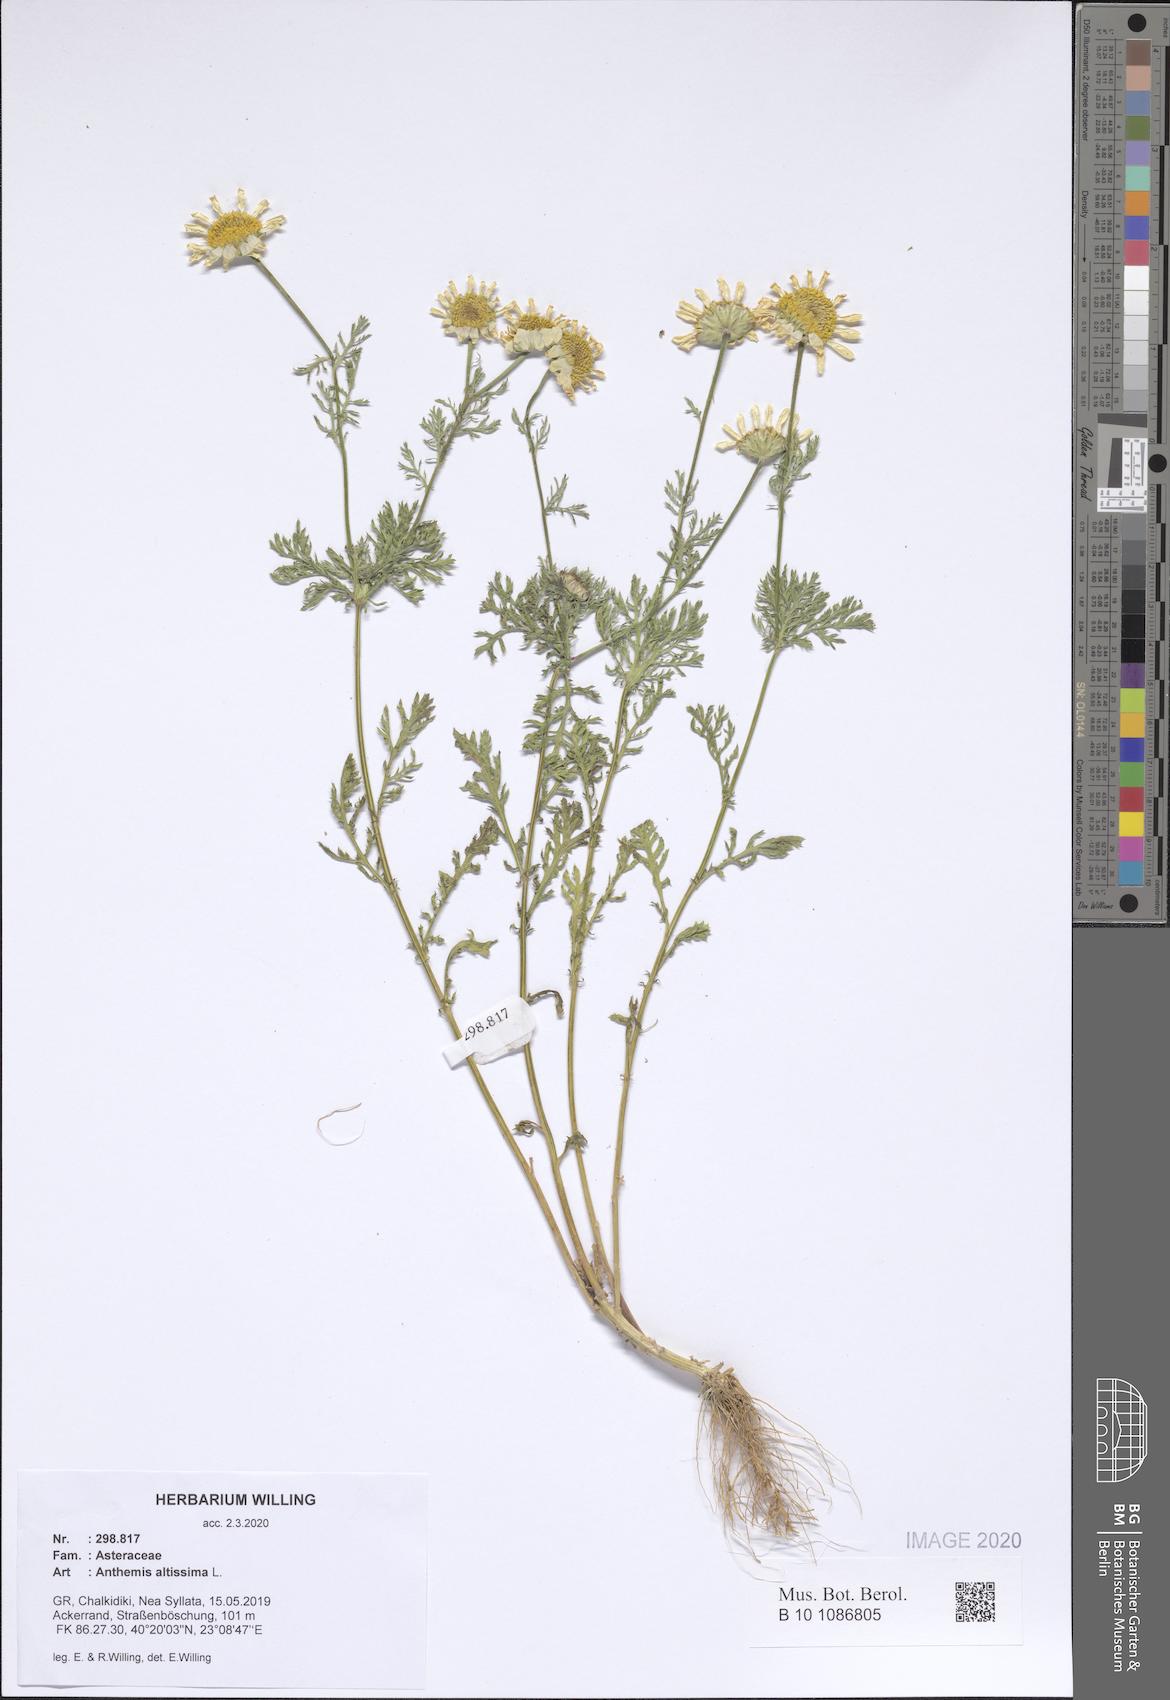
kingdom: Plantae
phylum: Tracheophyta
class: Magnoliopsida
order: Asterales
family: Asteraceae
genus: Cota
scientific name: Cota altissima
